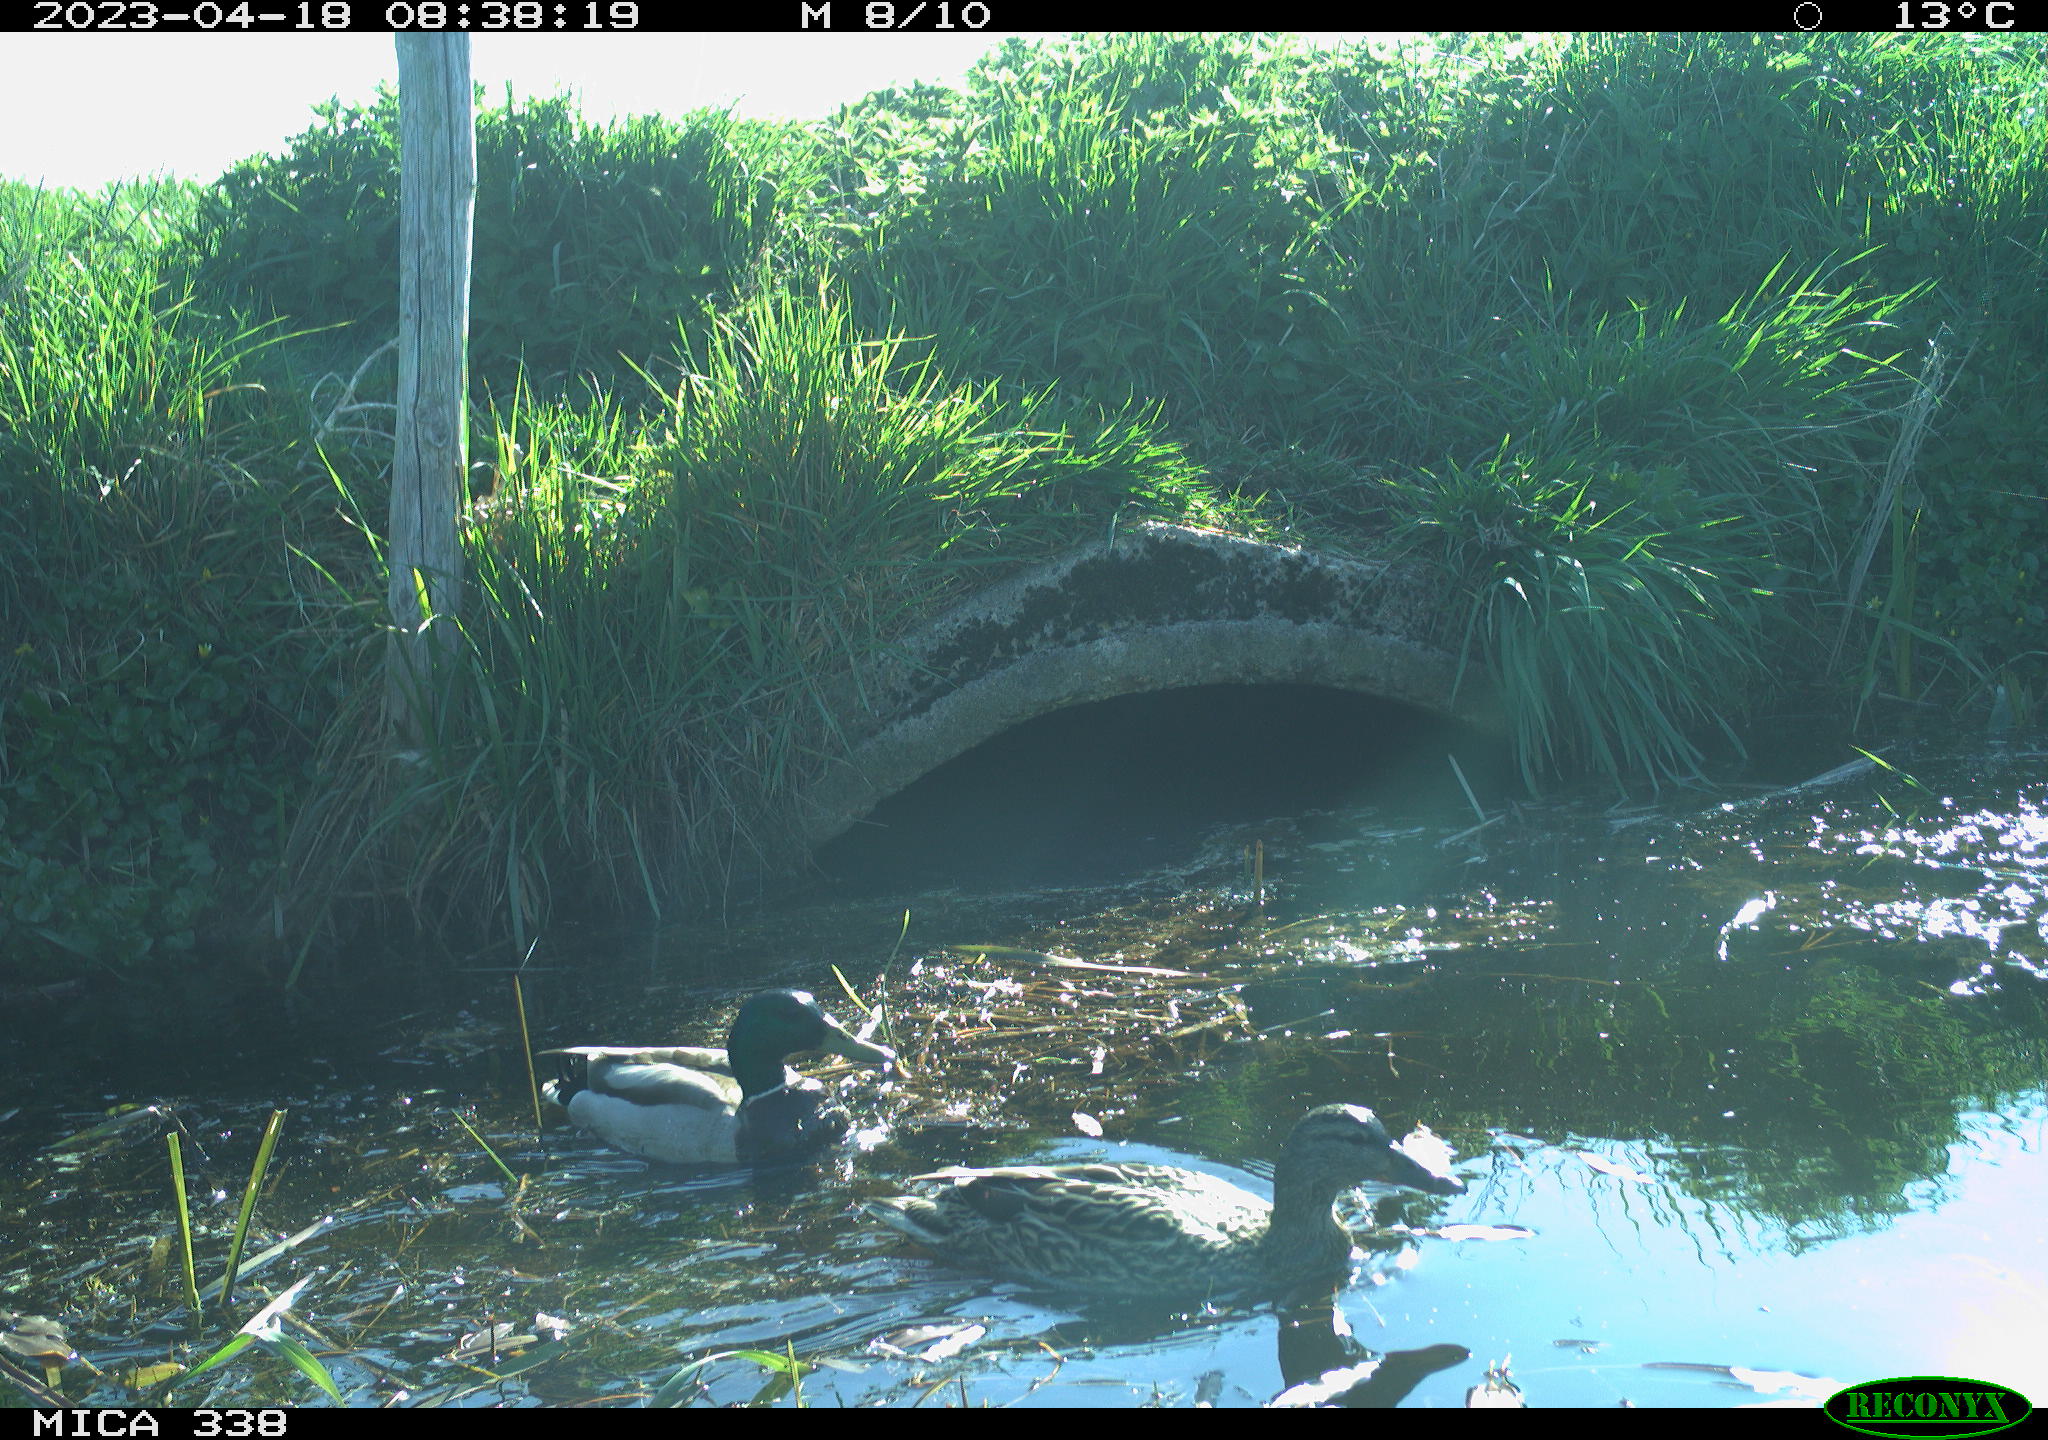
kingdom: Animalia
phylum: Chordata
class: Aves
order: Anseriformes
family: Anatidae
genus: Anas
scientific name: Anas platyrhynchos
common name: Mallard
